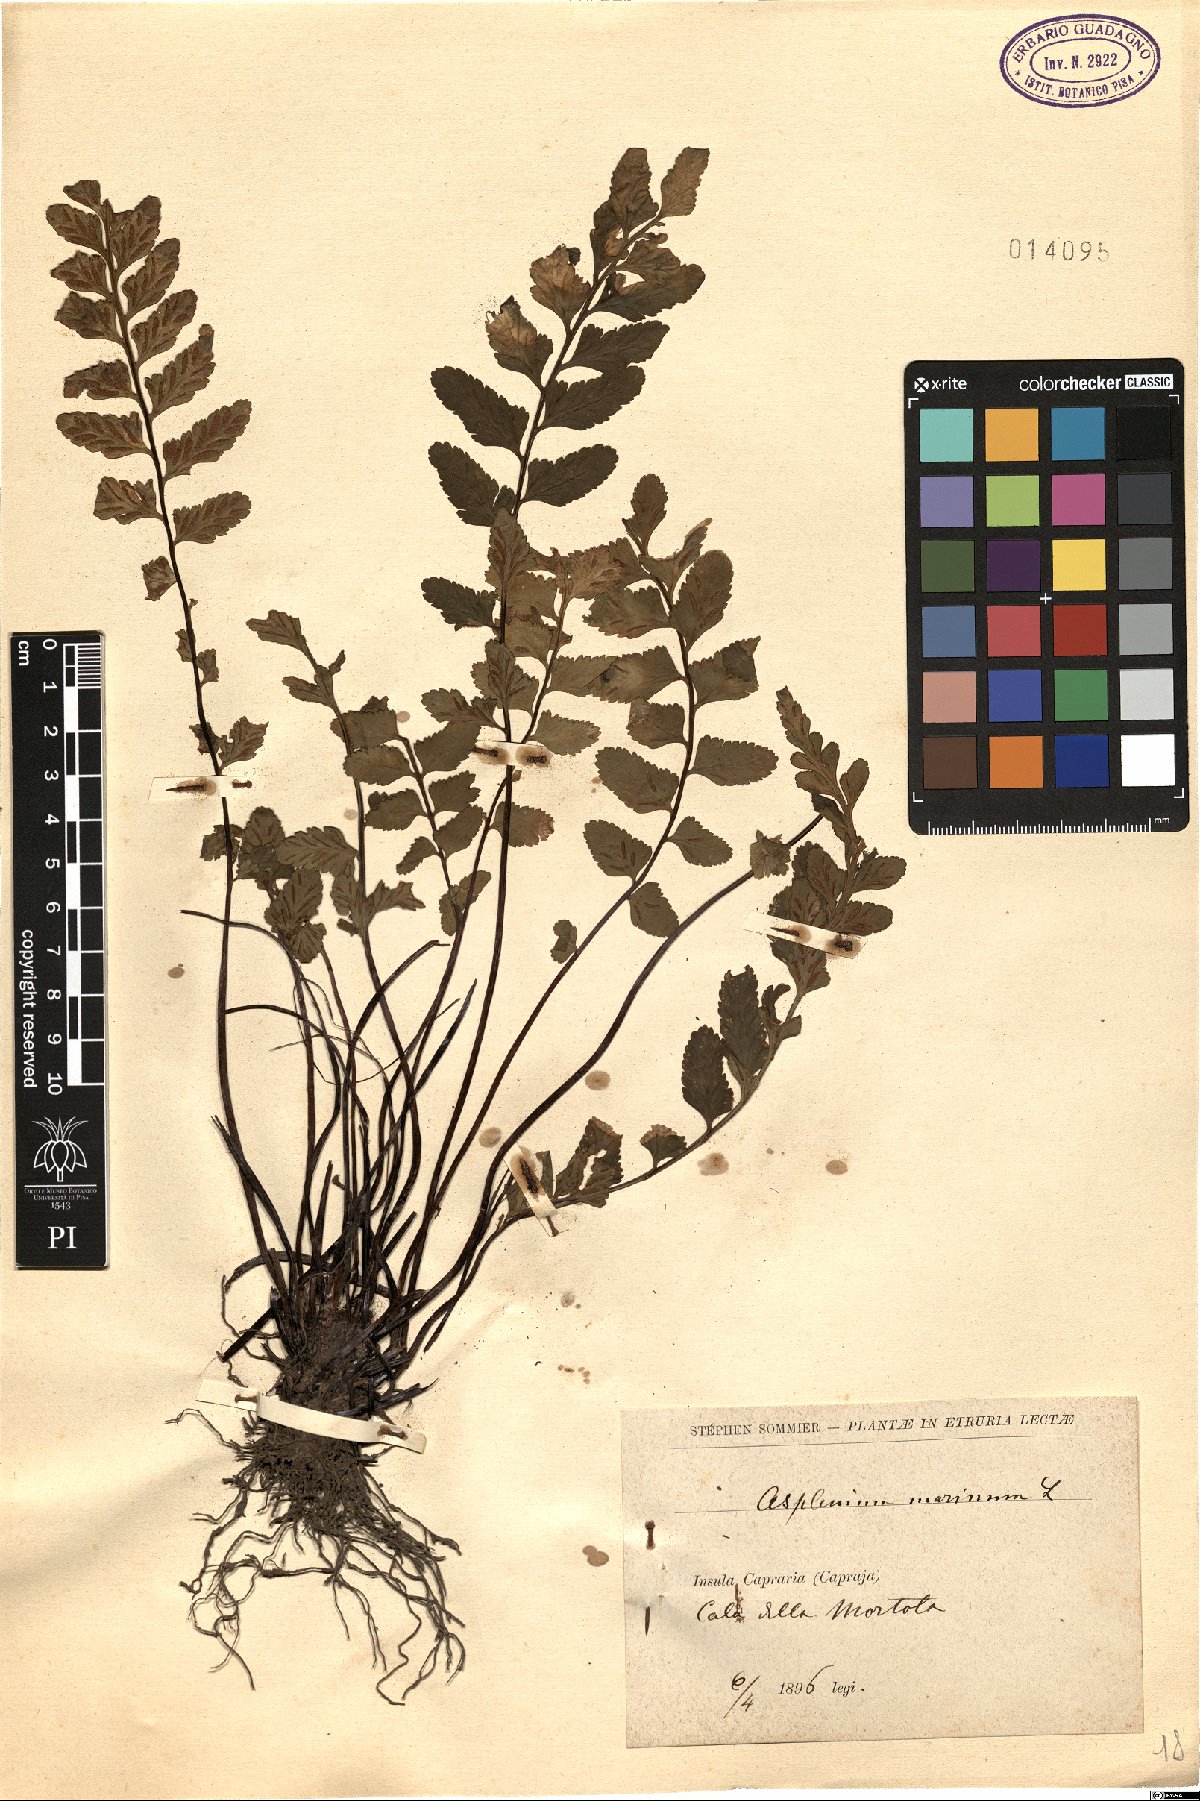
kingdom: Plantae
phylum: Tracheophyta
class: Polypodiopsida
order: Polypodiales
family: Aspleniaceae
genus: Asplenium
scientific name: Asplenium marinum
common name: Sea spleenwort
